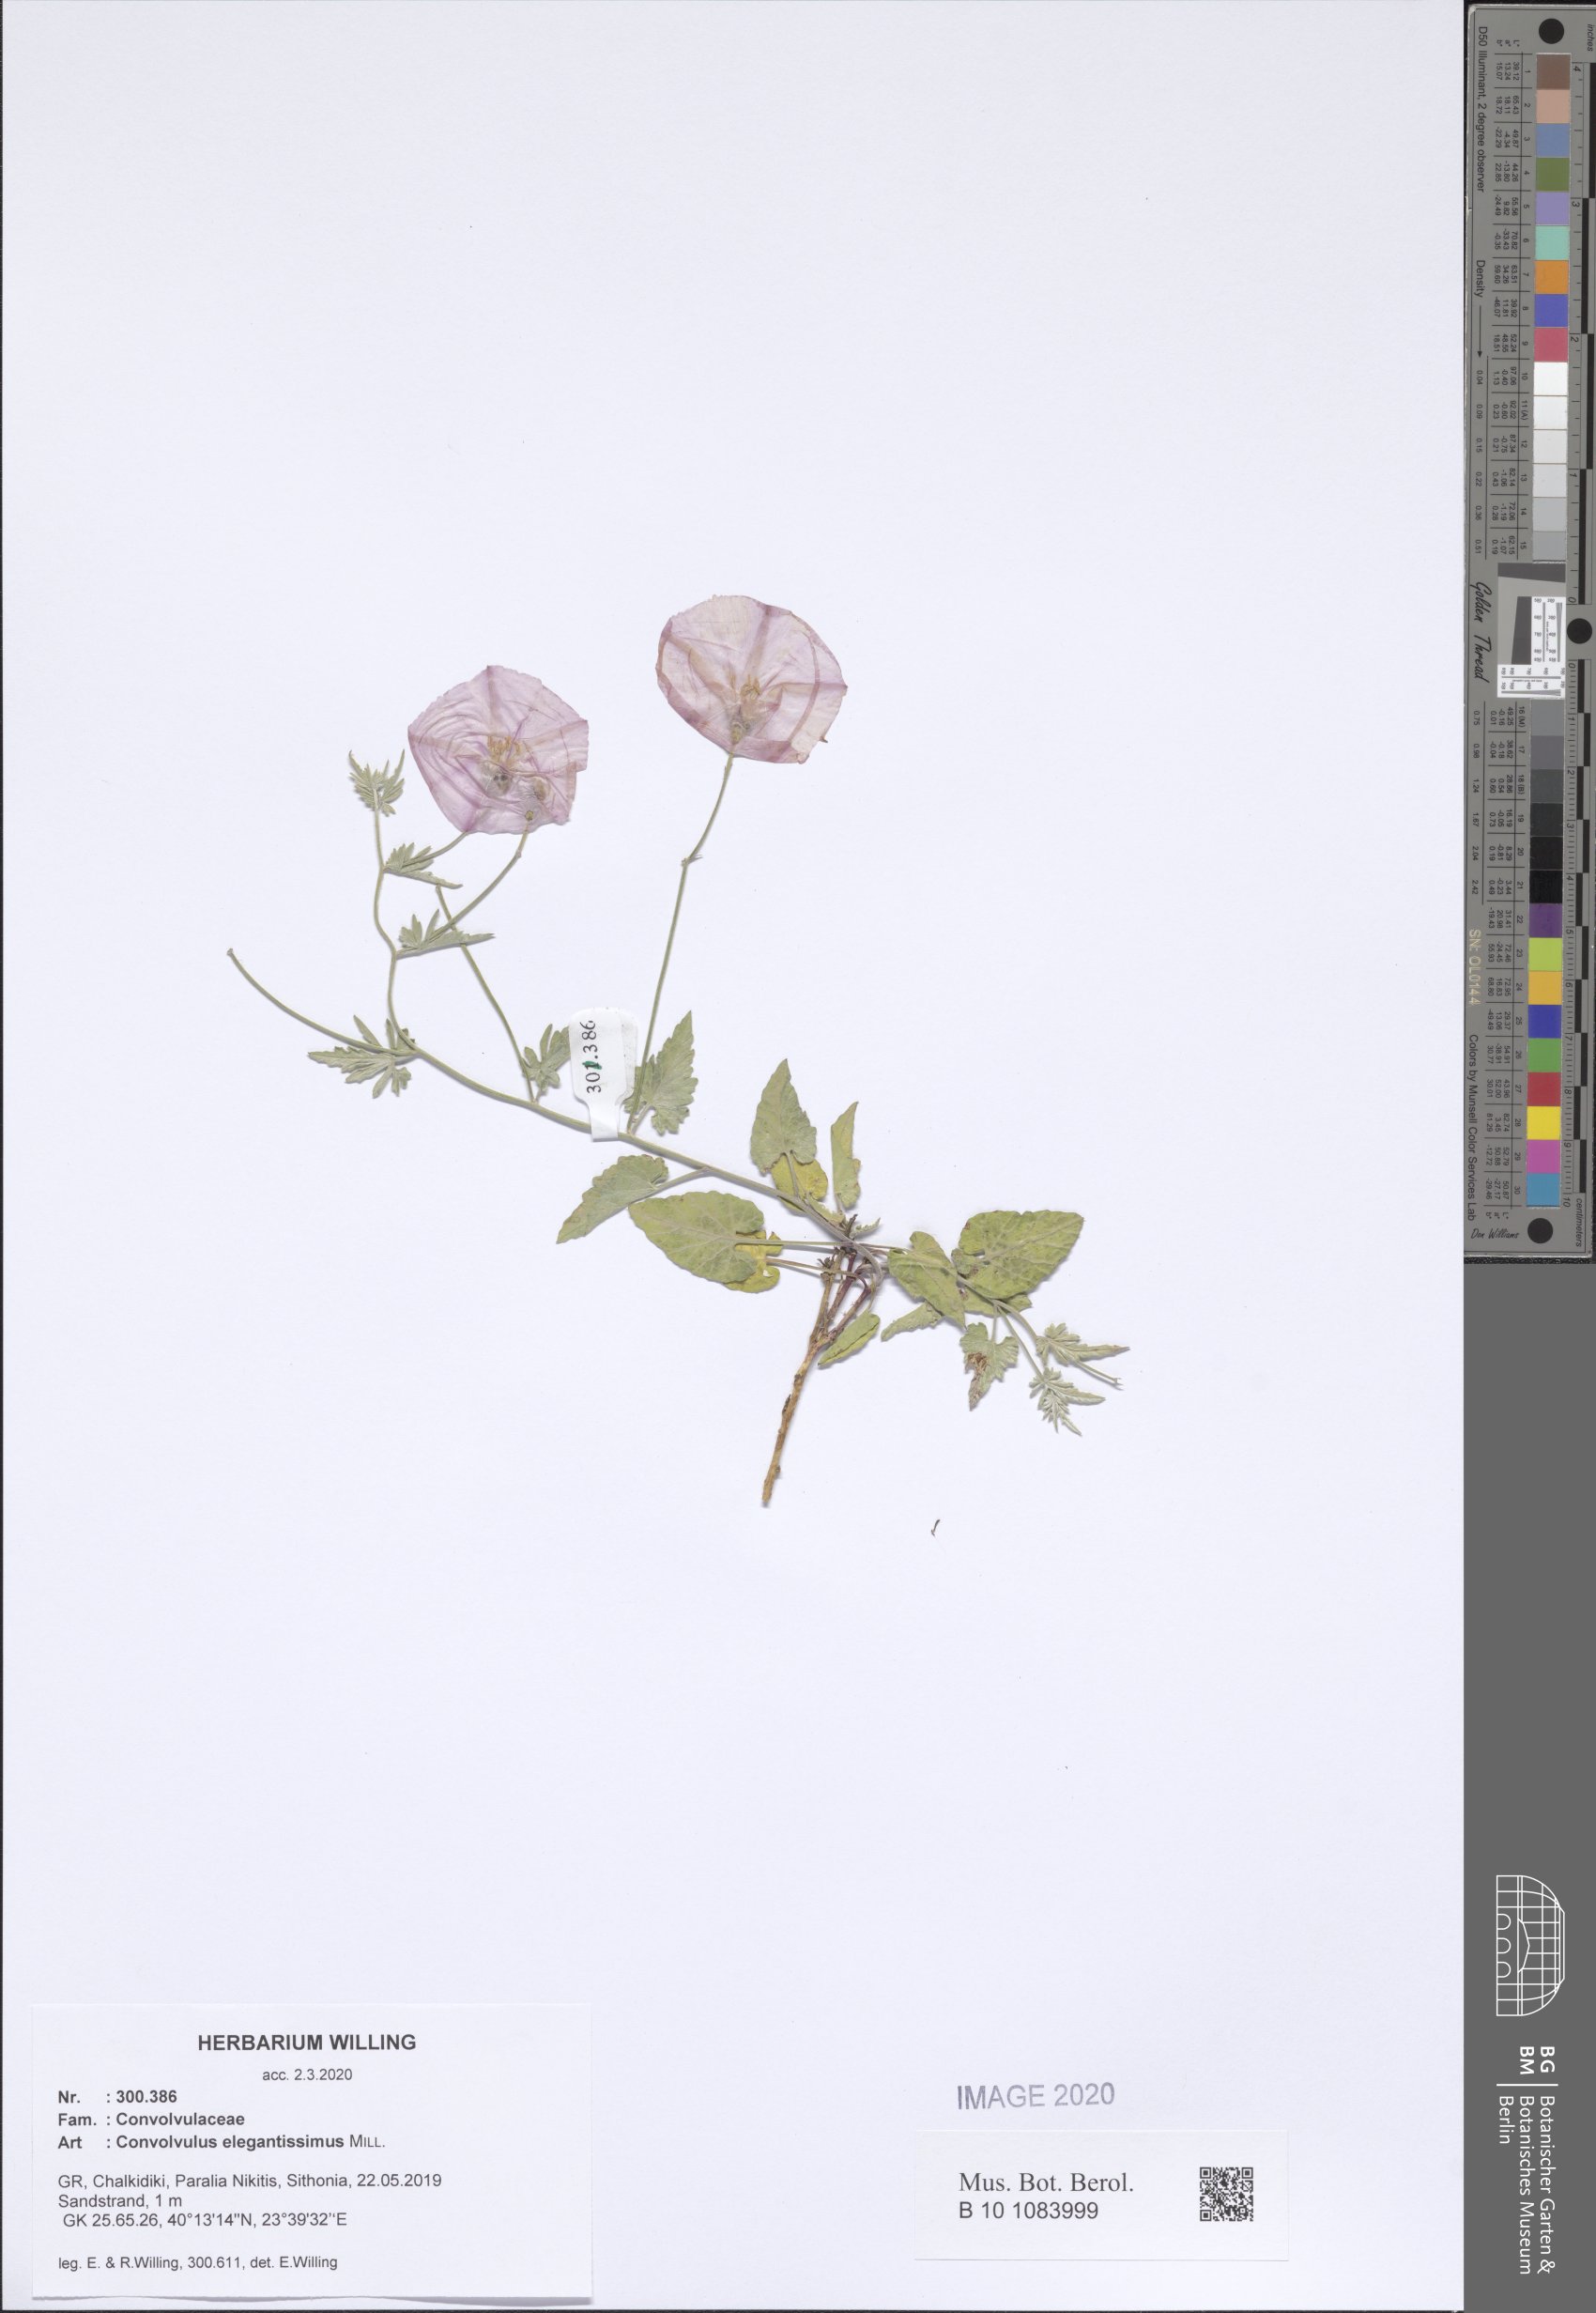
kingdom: Plantae
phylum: Tracheophyta
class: Magnoliopsida
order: Solanales
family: Convolvulaceae
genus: Convolvulus
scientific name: Convolvulus elegantissimus
